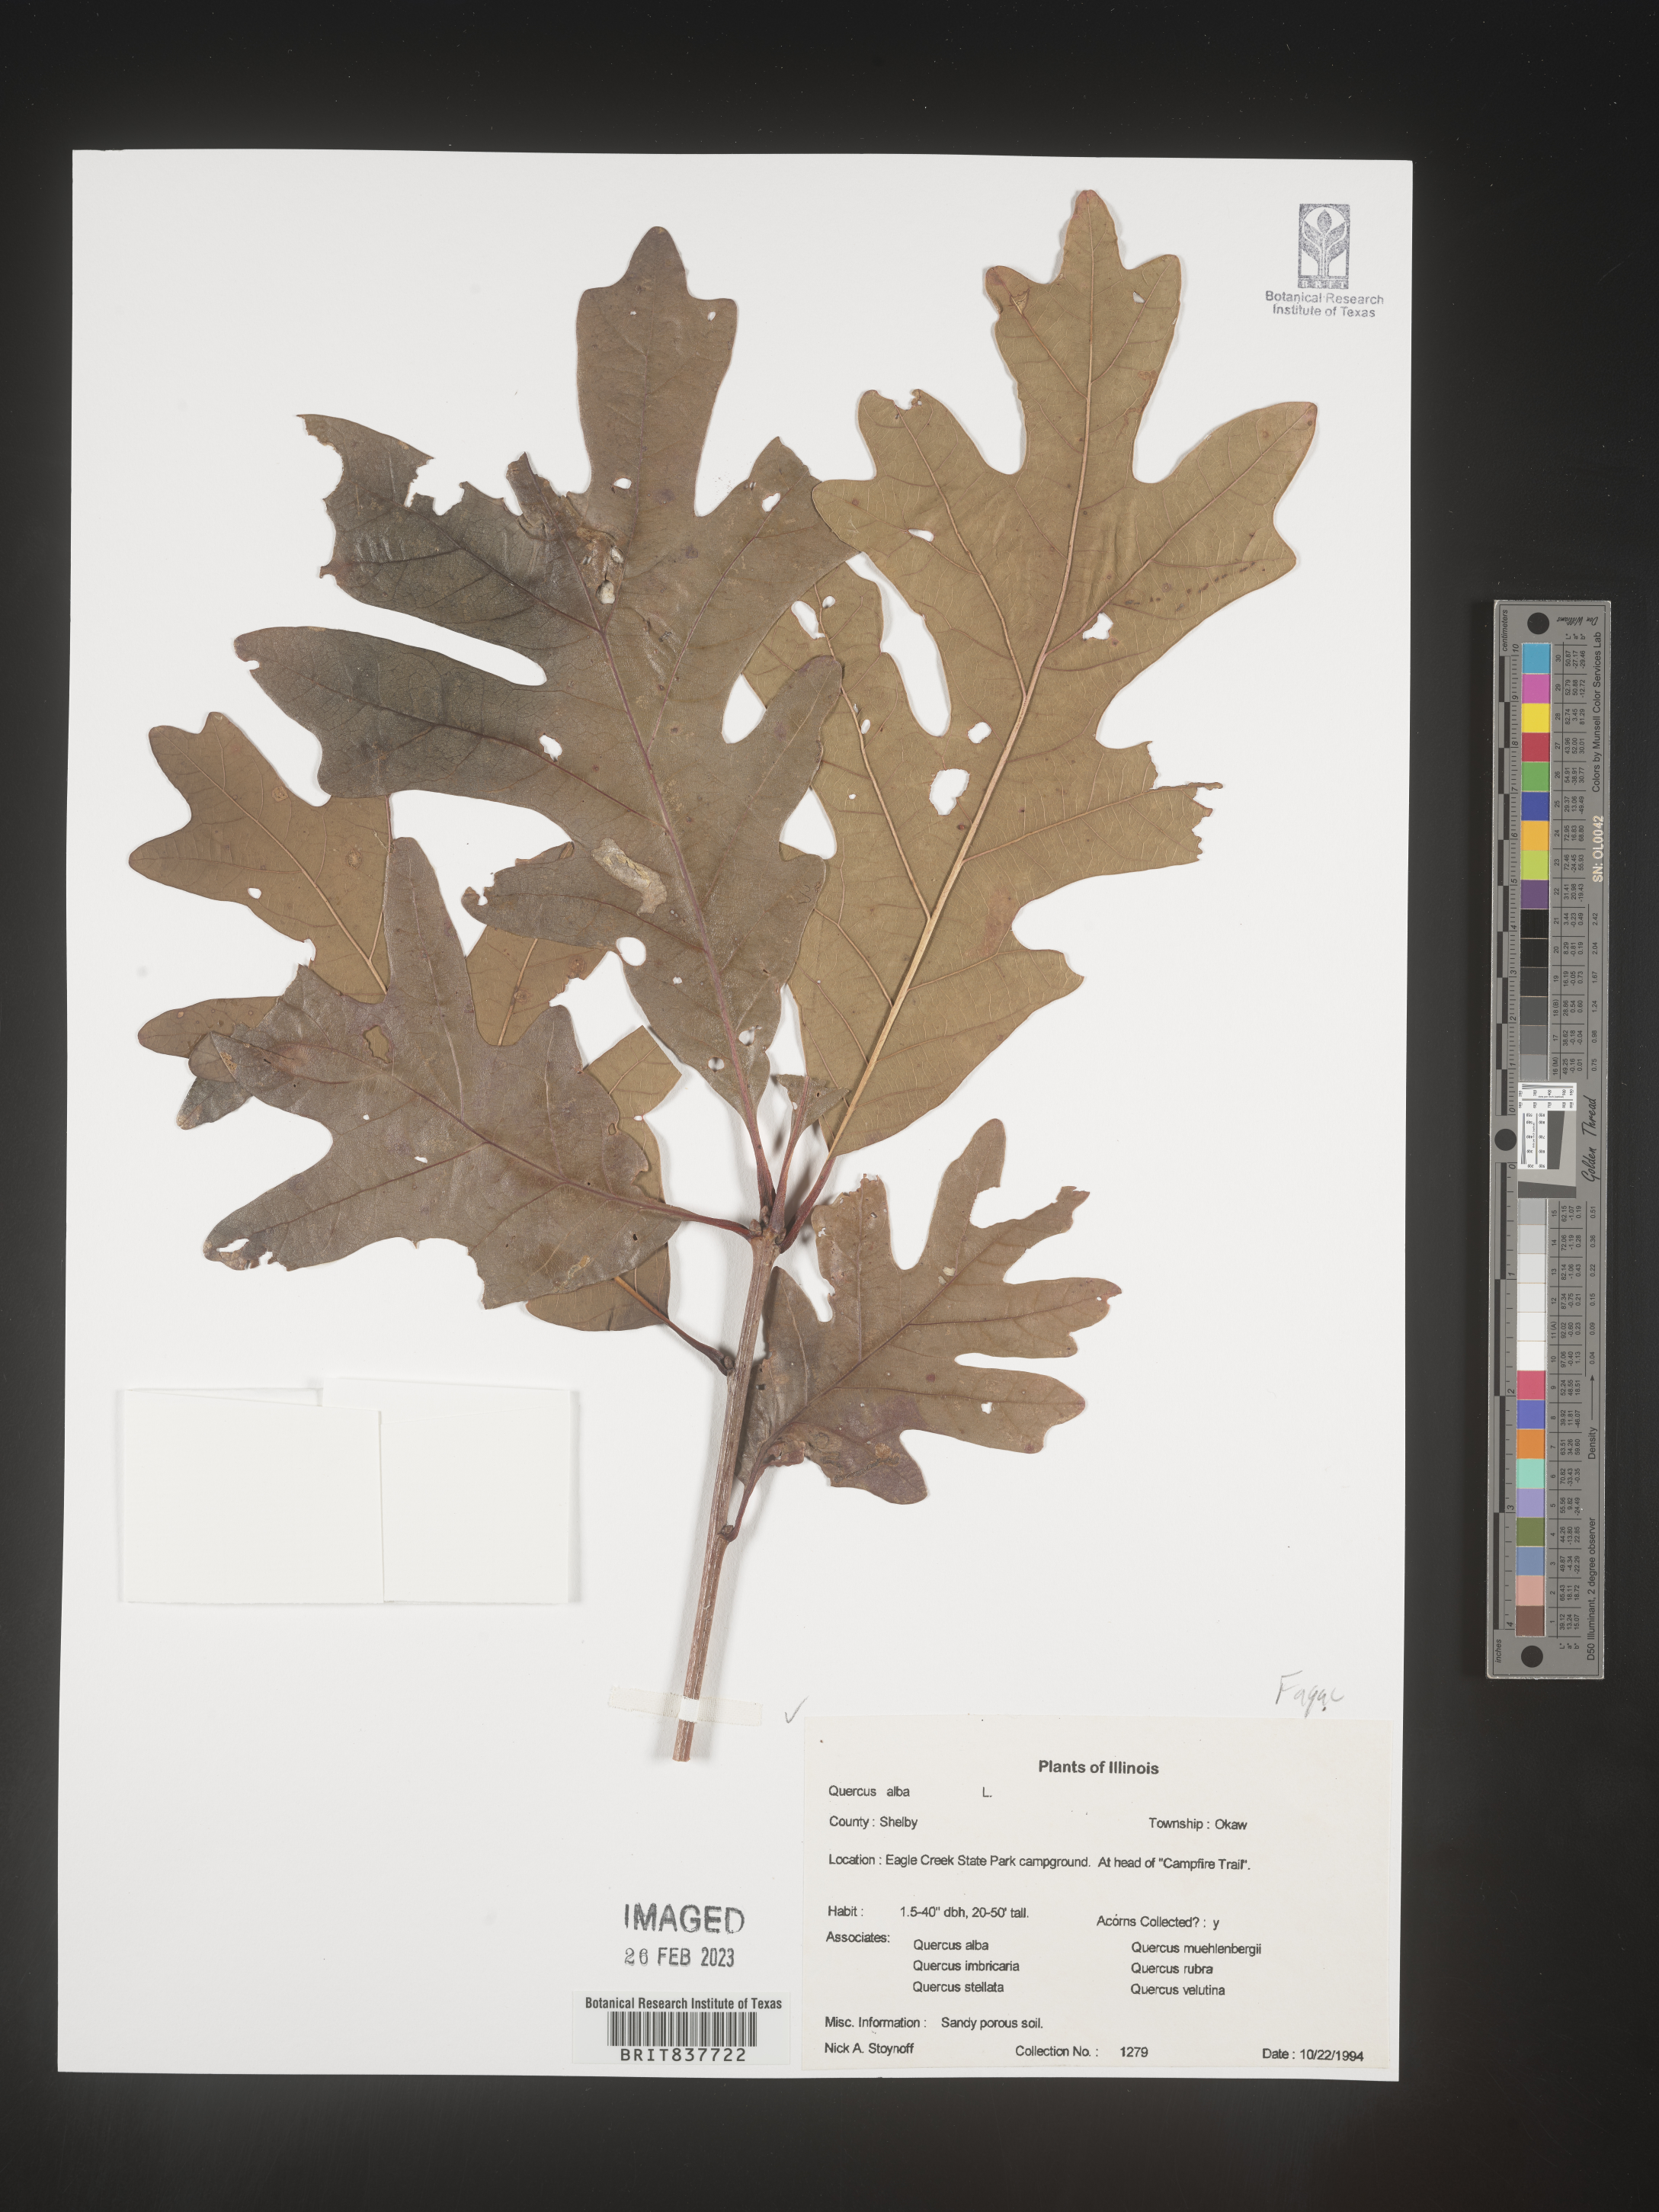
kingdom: Plantae
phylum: Tracheophyta
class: Magnoliopsida
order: Fagales
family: Fagaceae
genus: Quercus
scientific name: Quercus alba
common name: White oak
